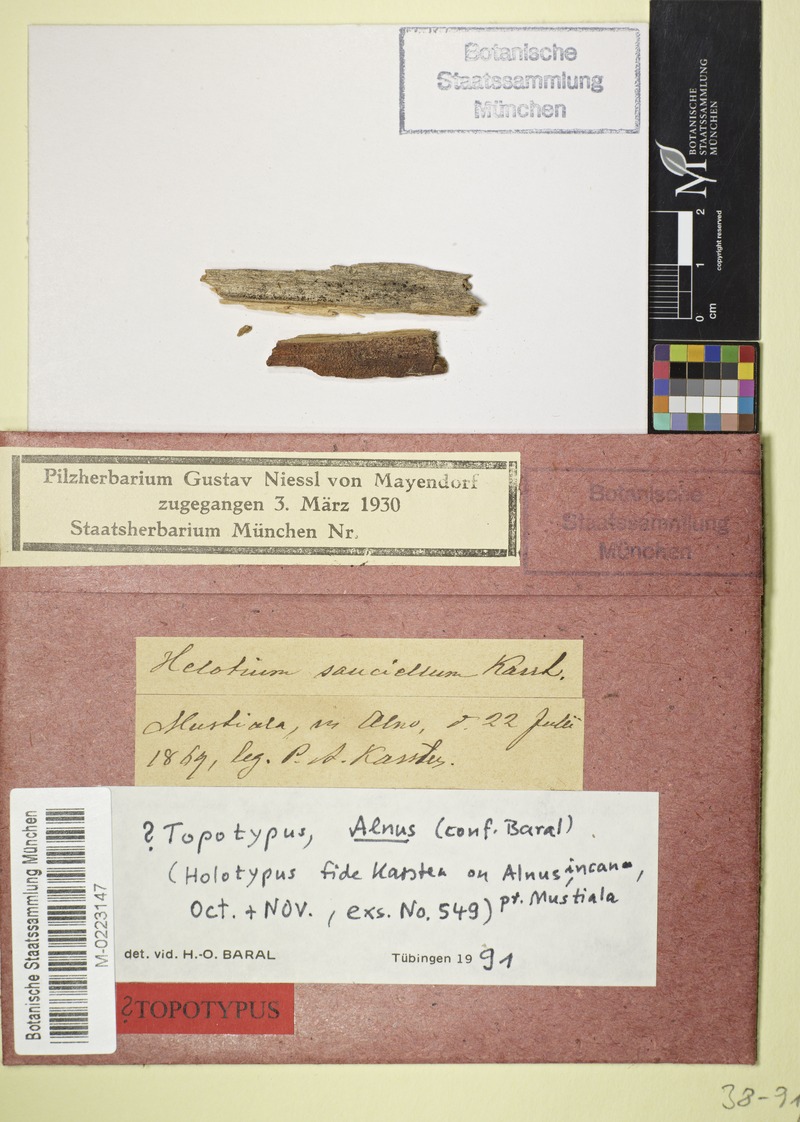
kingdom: Fungi
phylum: Ascomycota
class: Leotiomycetes
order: Helotiales
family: Hyaloscyphaceae
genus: Cistella
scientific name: Cistella sauciella
